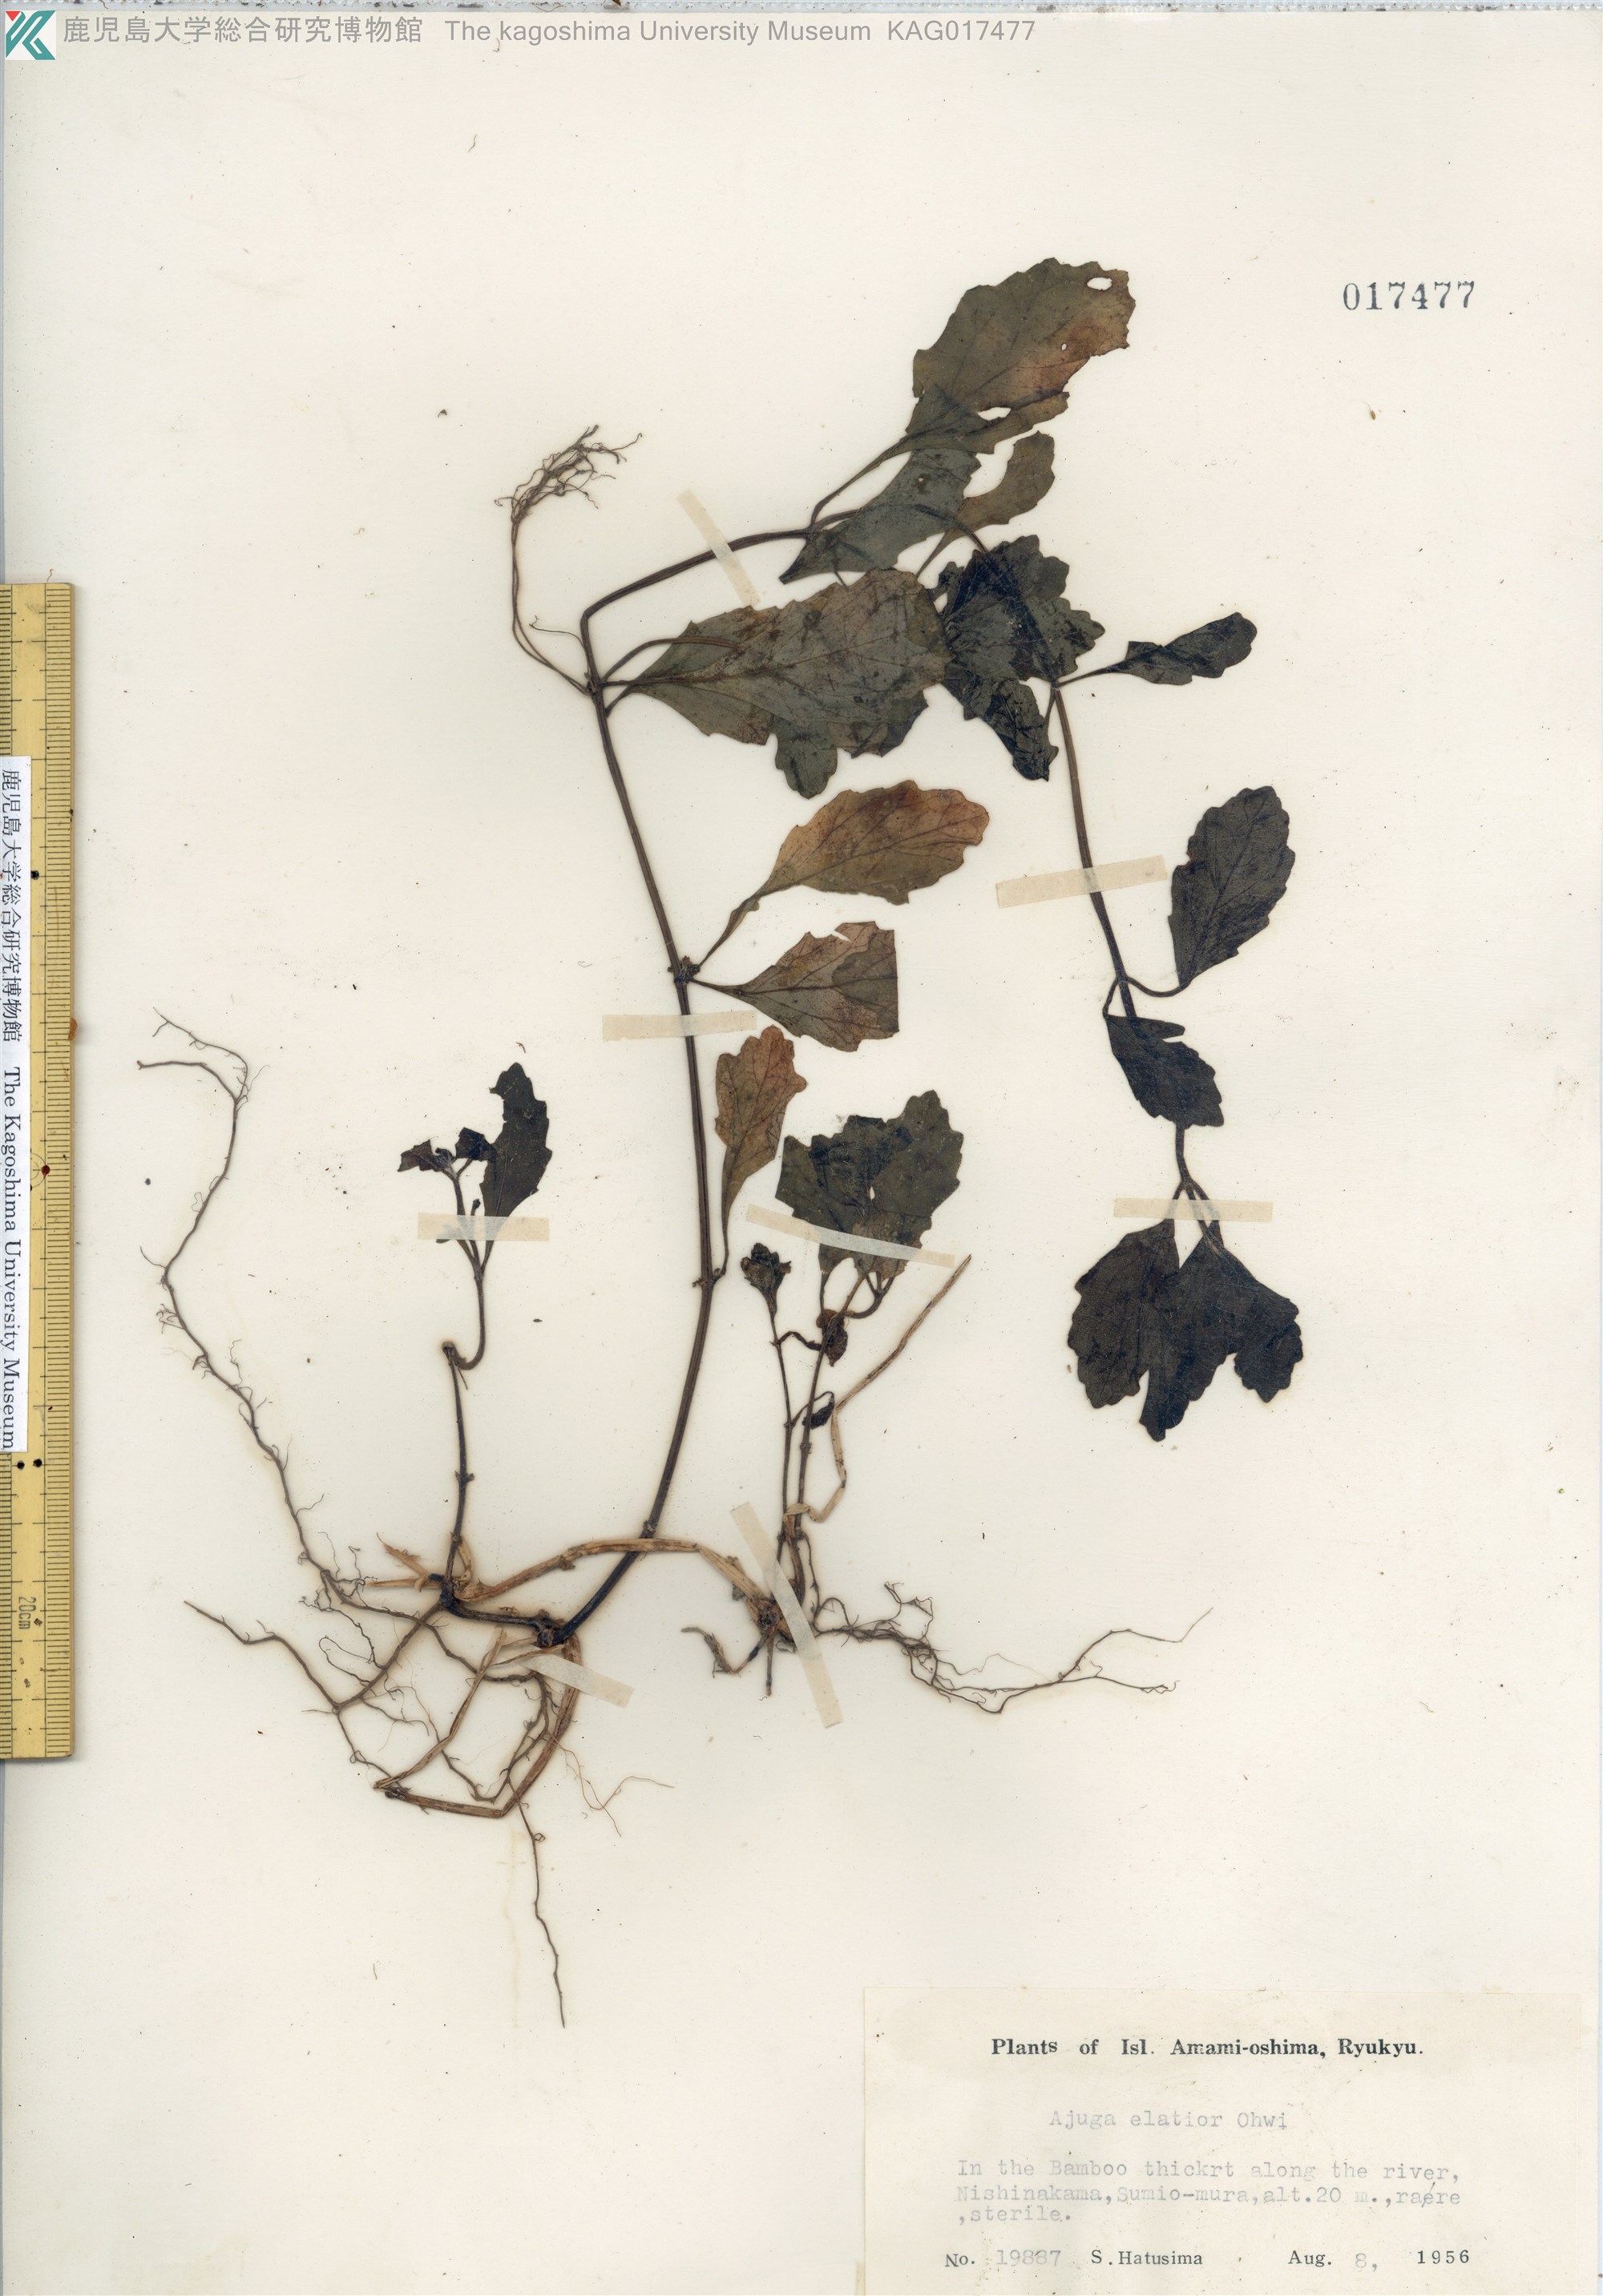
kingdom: Plantae
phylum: Tracheophyta
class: Magnoliopsida
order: Lamiales
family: Lamiaceae
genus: Ajuga
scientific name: Ajuga dictyocarpa
